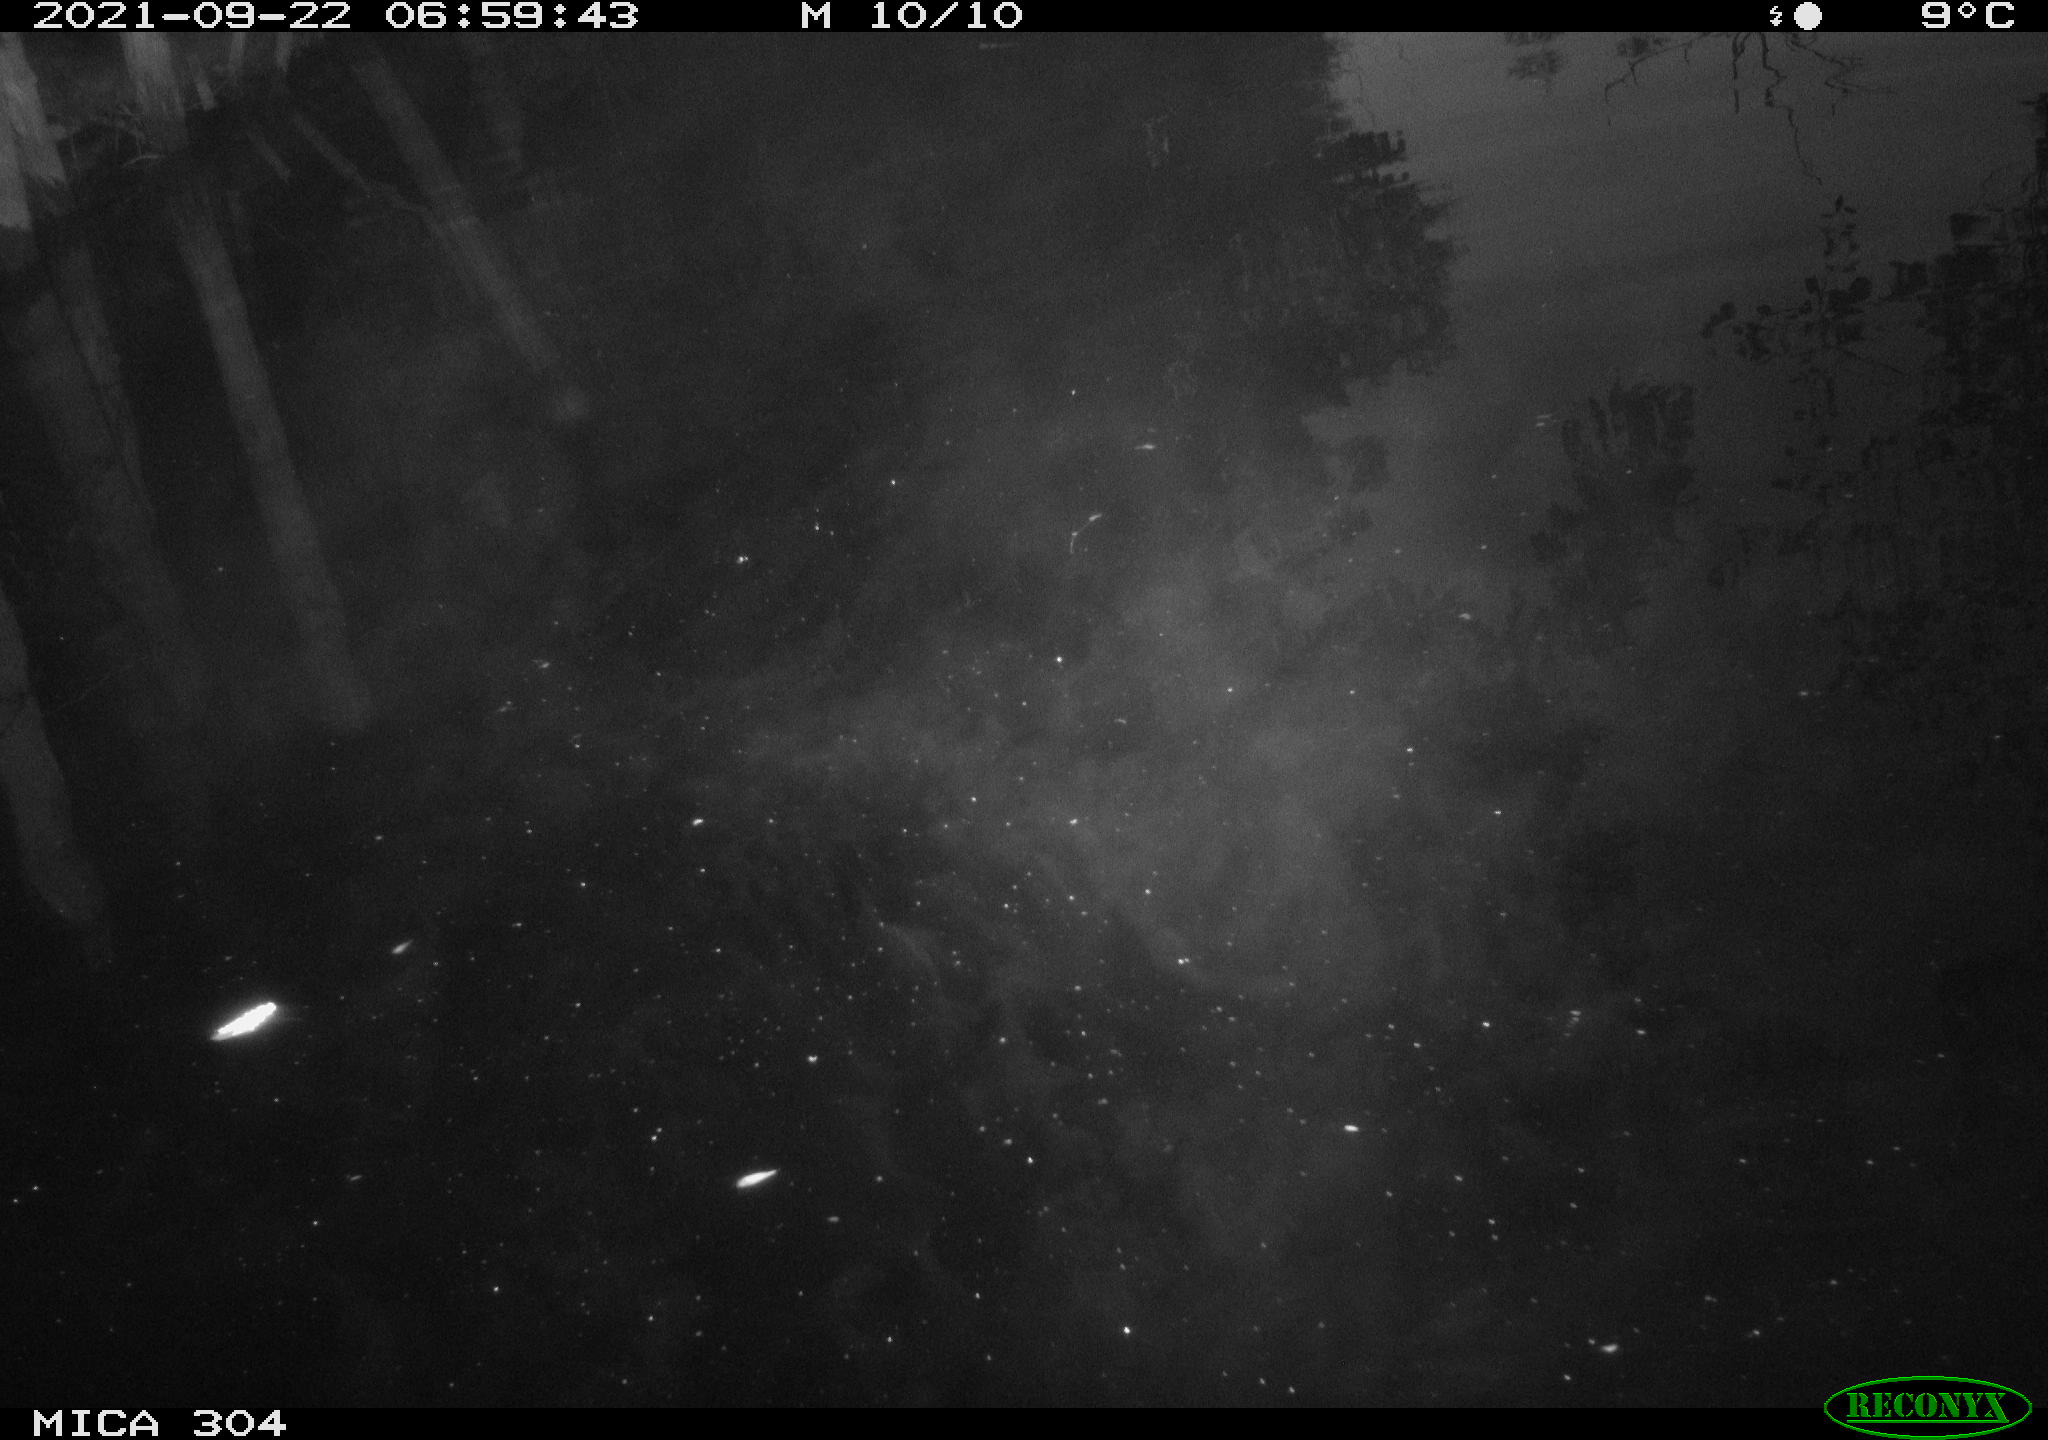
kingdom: Animalia
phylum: Chordata
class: Aves
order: Anseriformes
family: Anatidae
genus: Anas
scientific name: Anas platyrhynchos
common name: Mallard
